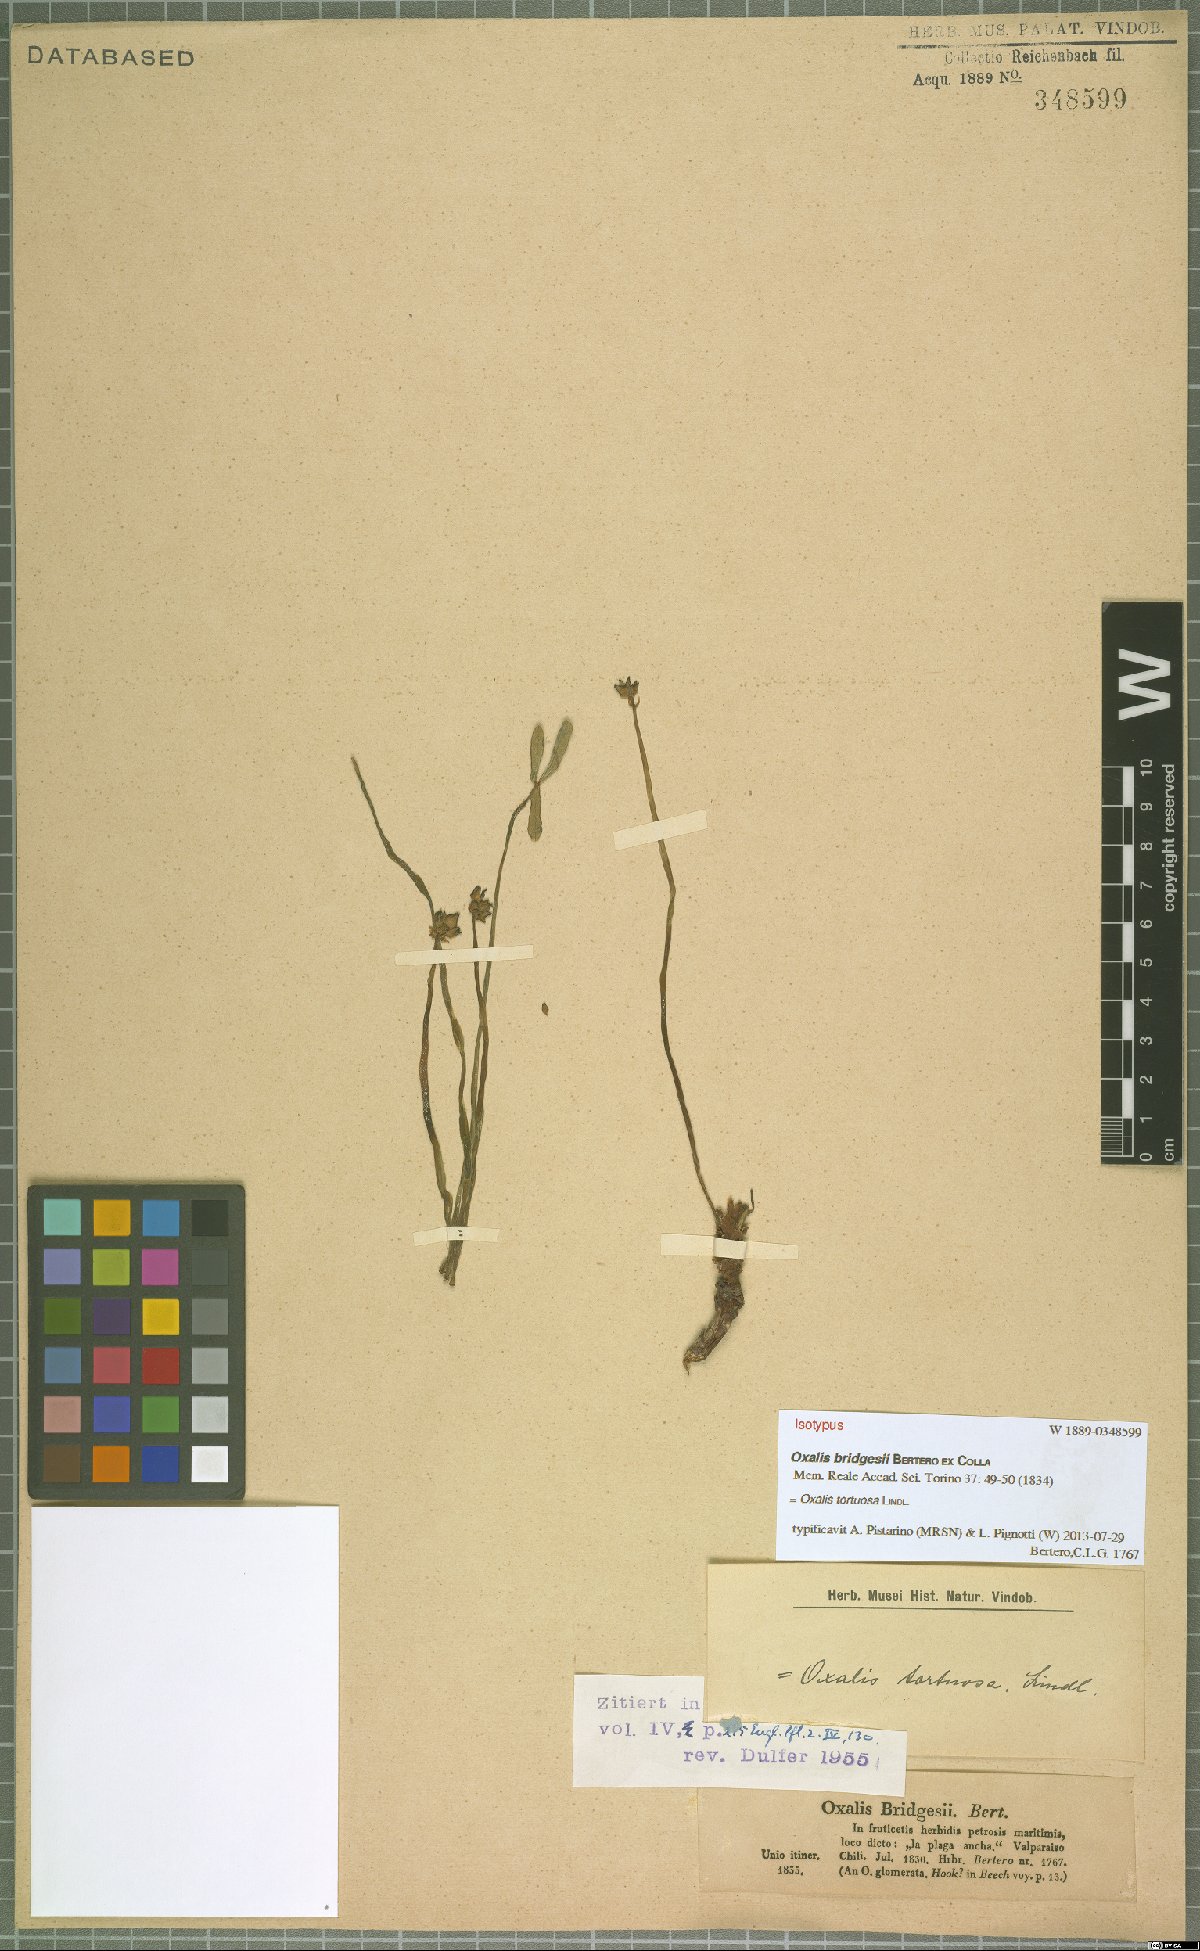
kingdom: Plantae
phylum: Tracheophyta
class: Magnoliopsida
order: Oxalidales
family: Oxalidaceae
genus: Oxalis
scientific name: Oxalis tortuosa
